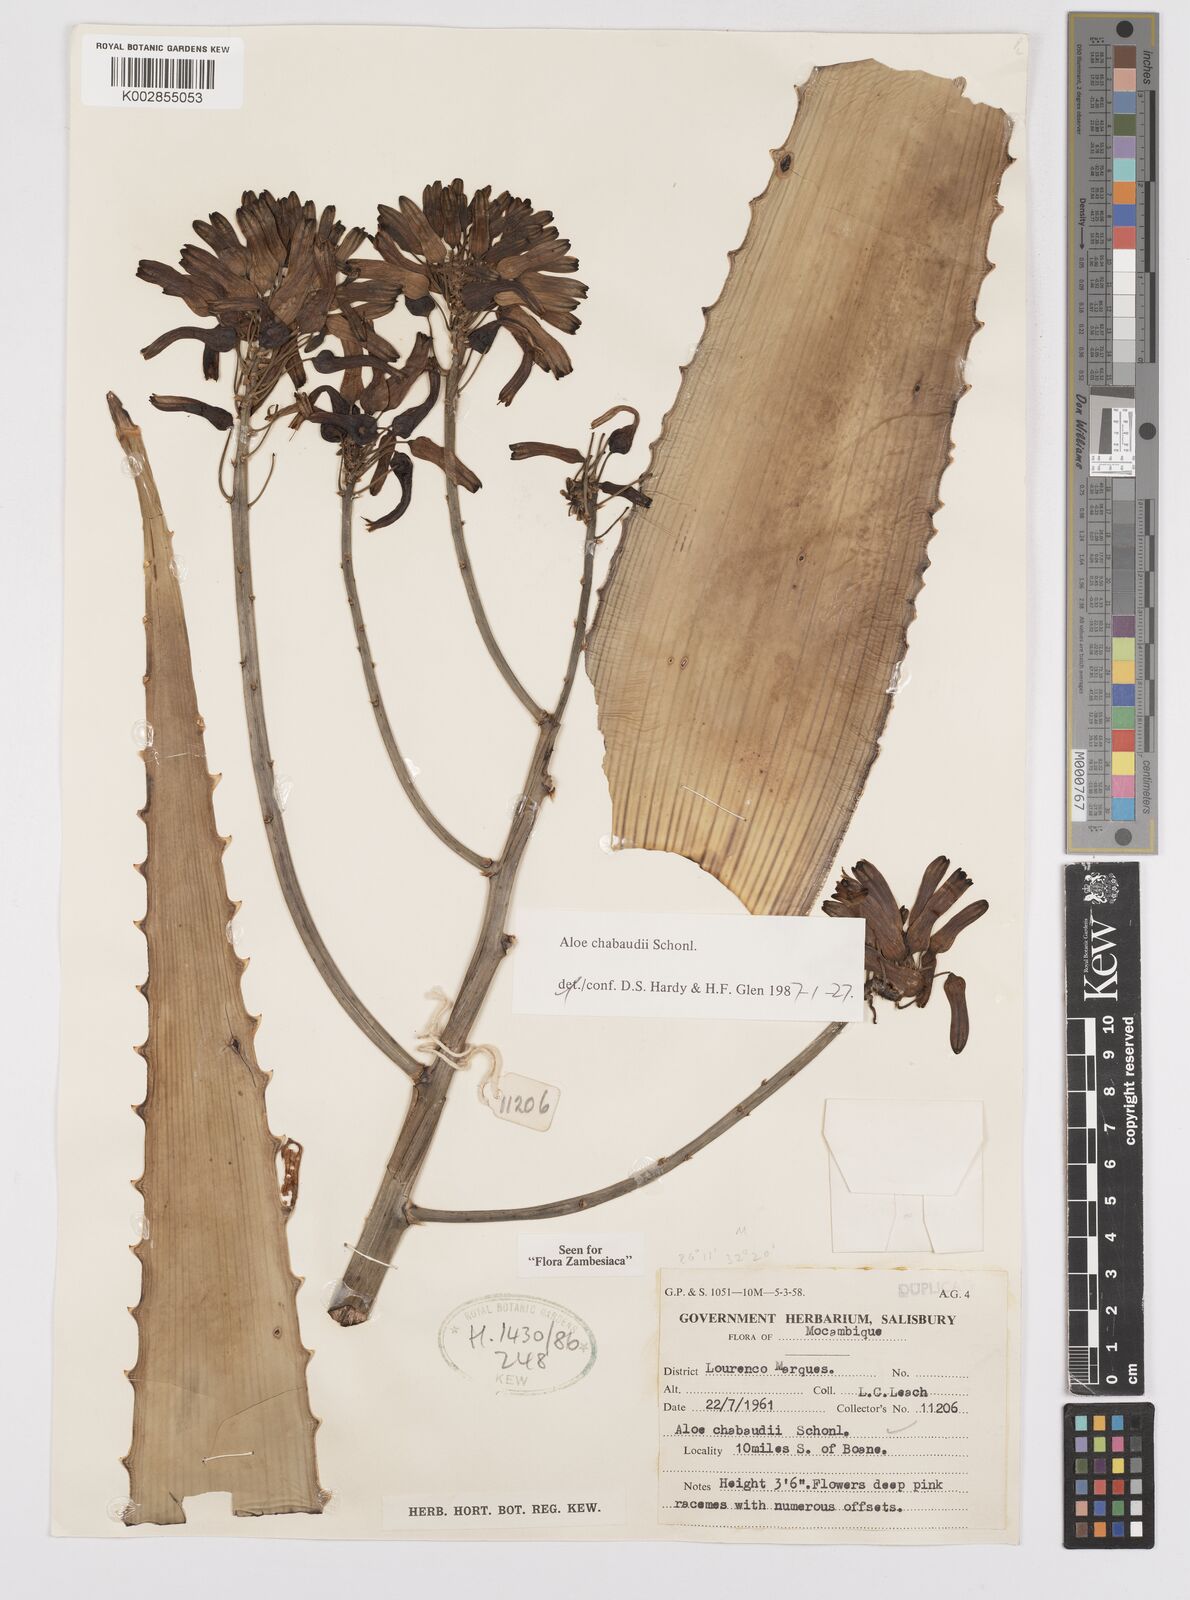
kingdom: Plantae
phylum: Tracheophyta
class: Liliopsida
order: Asparagales
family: Asphodelaceae
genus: Aloe
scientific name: Aloe chabaudii
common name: Chabaud's aloe
